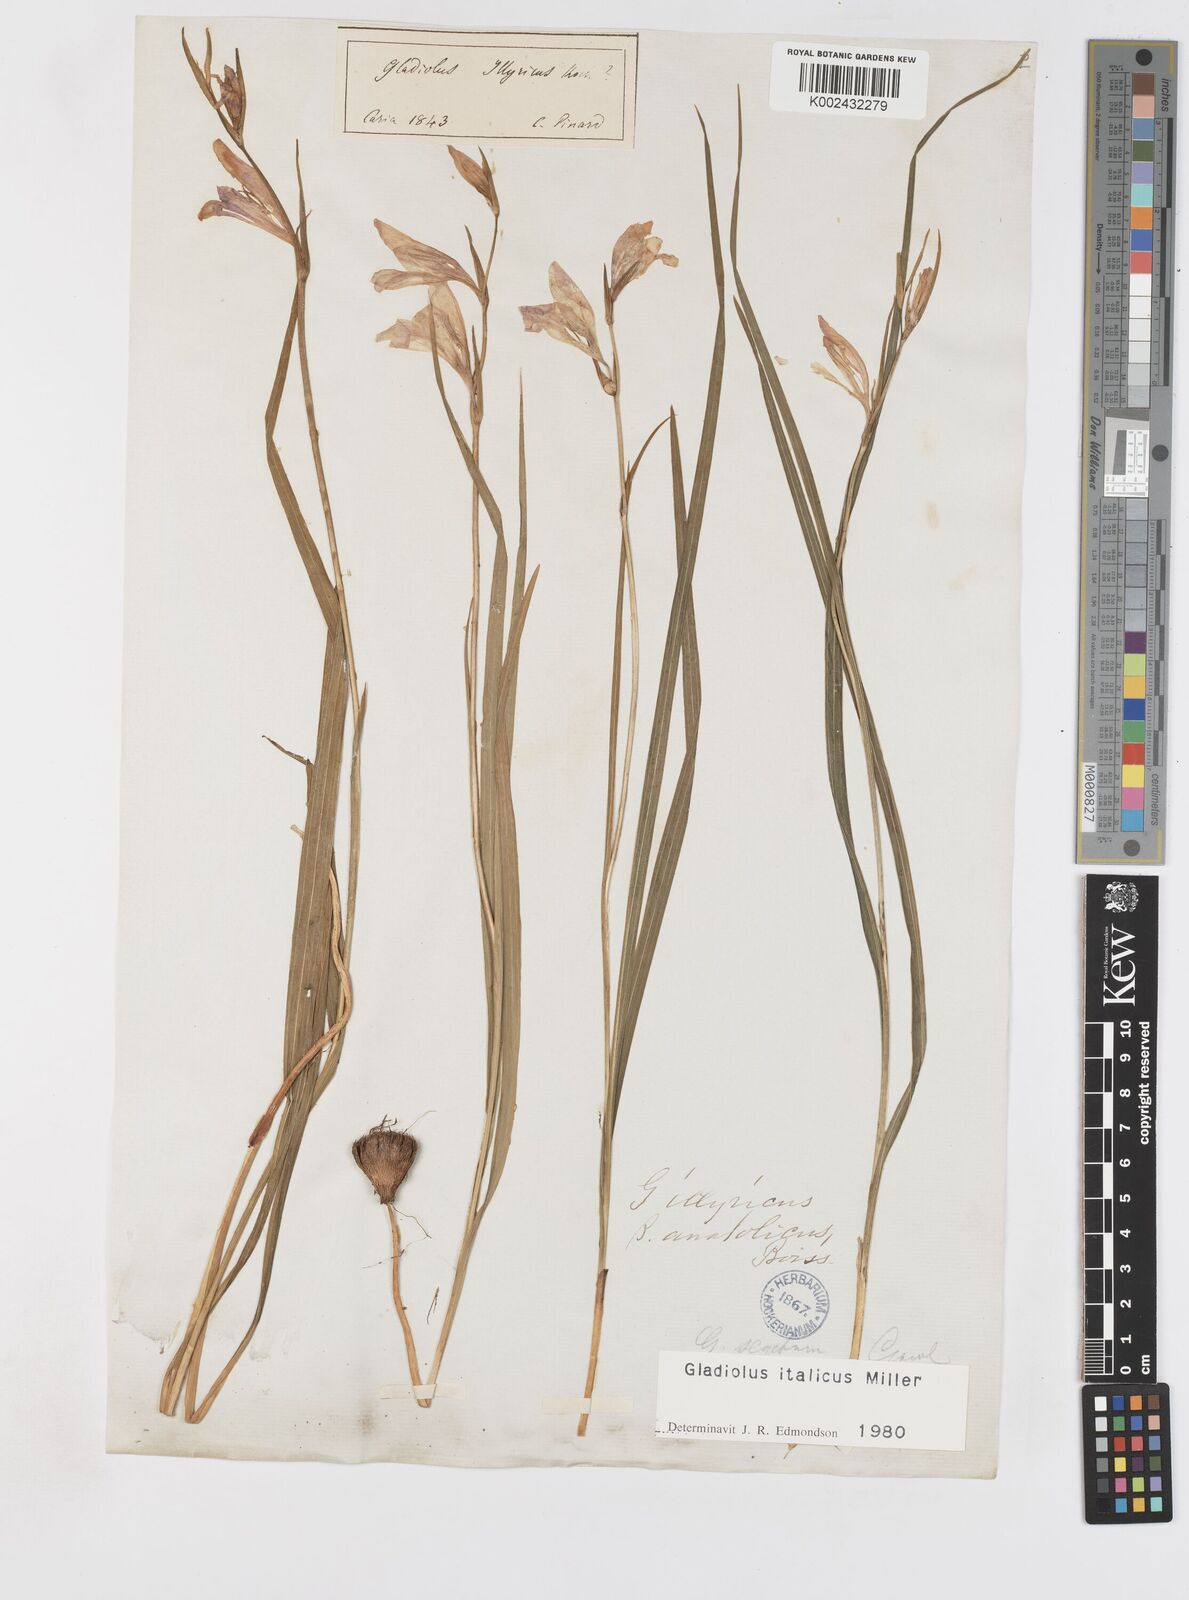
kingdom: Plantae
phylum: Tracheophyta
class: Liliopsida
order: Asparagales
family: Iridaceae
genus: Gladiolus
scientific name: Gladiolus italicus
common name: Field gladiolus
